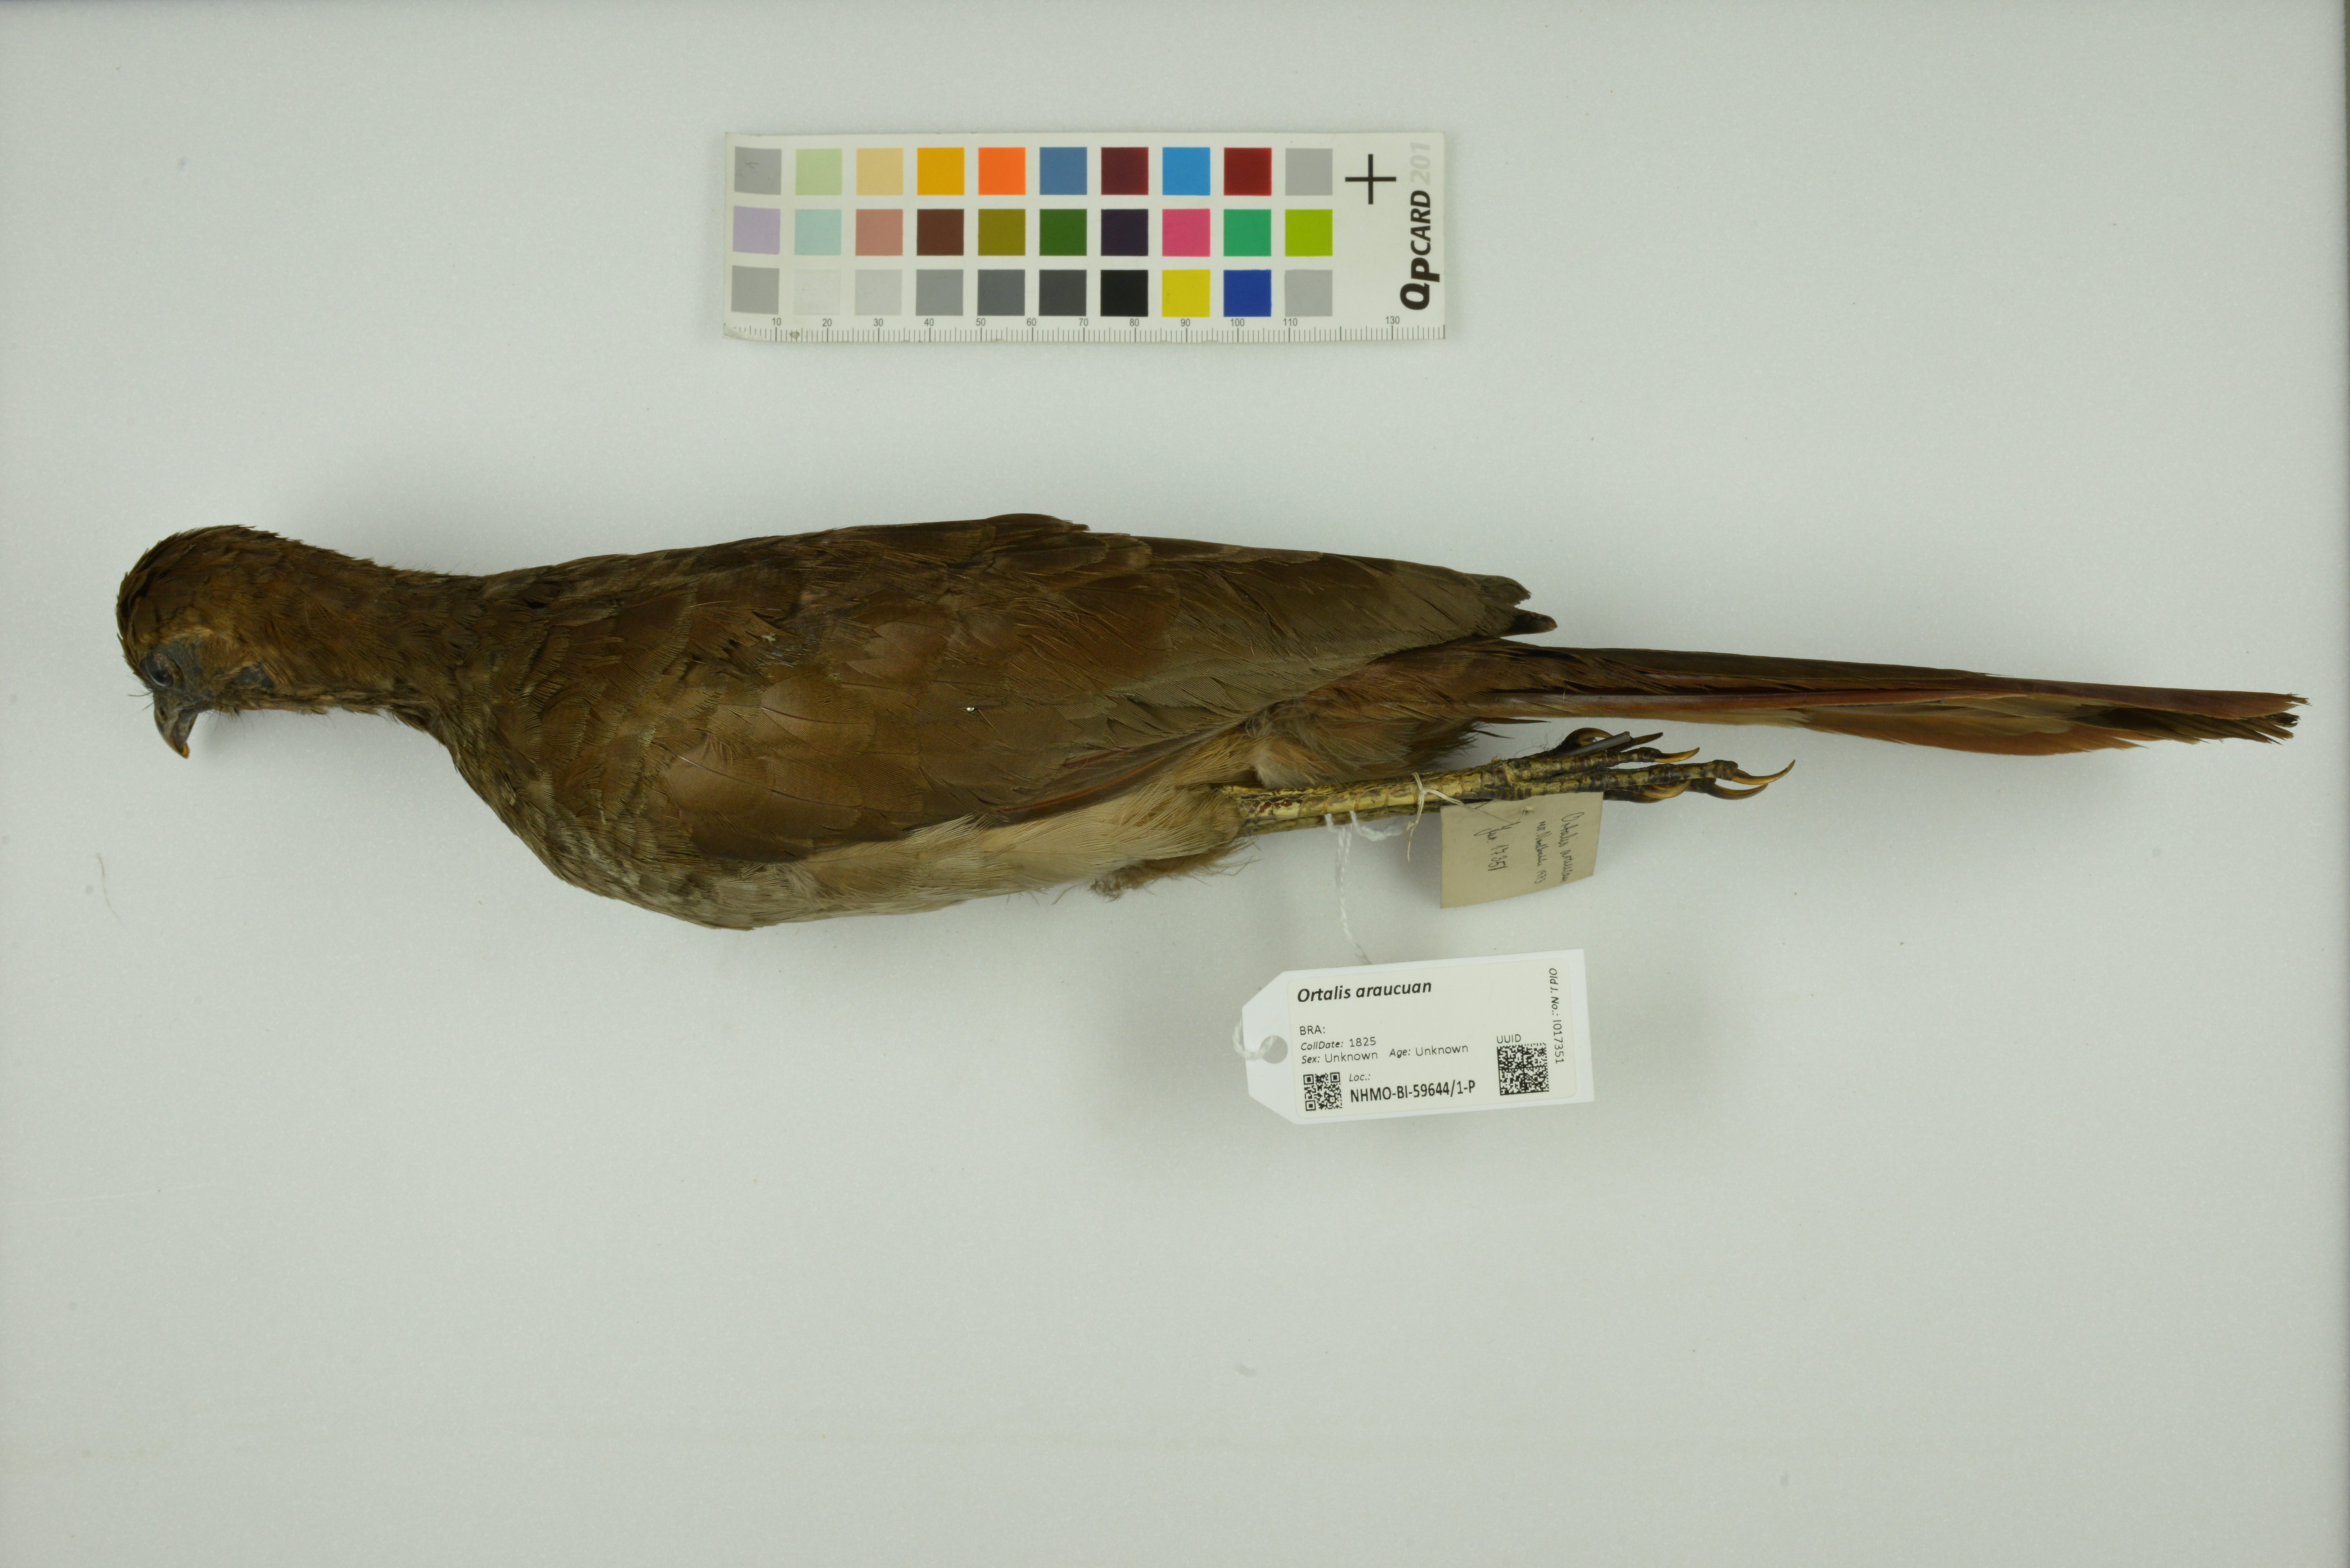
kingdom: Animalia
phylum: Chordata
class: Aves
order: Galliformes
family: Cracidae
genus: Ortalis
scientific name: Ortalis araucuan
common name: East brazilian chachalaca
